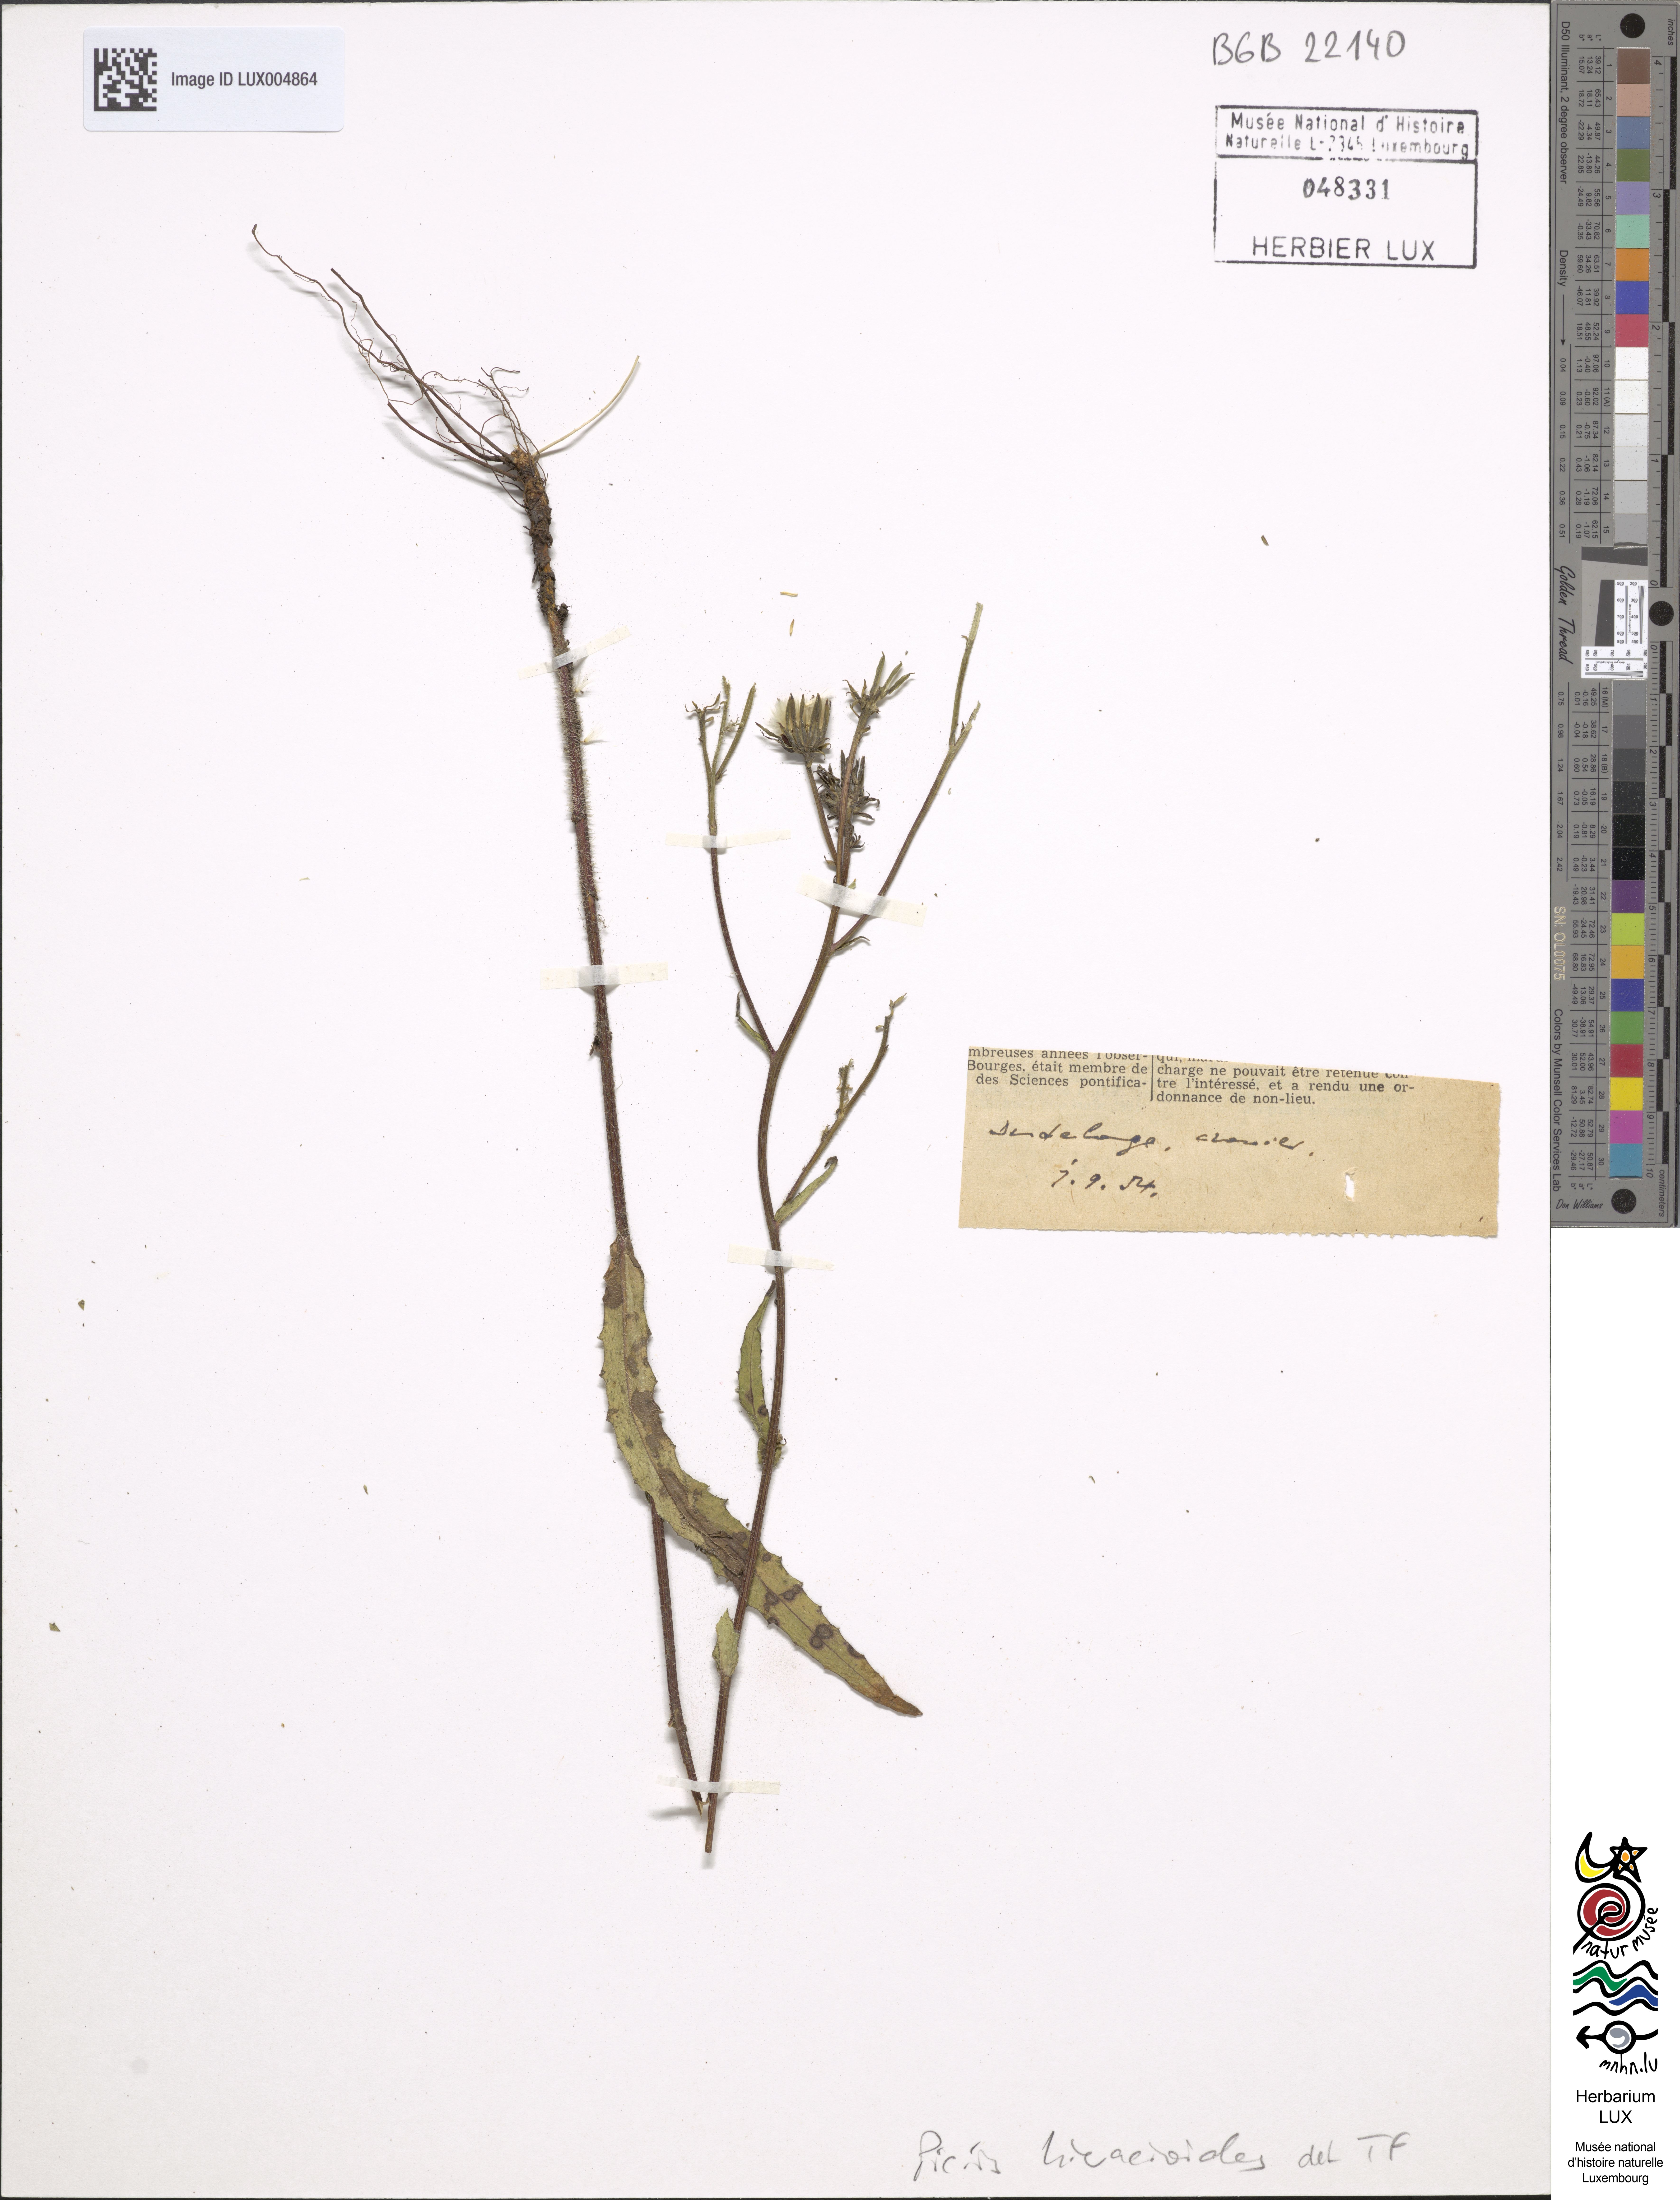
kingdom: Plantae
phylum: Tracheophyta
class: Magnoliopsida
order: Asterales
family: Asteraceae
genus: Picris
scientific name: Picris hieracioides
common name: Hawkweed oxtongue
